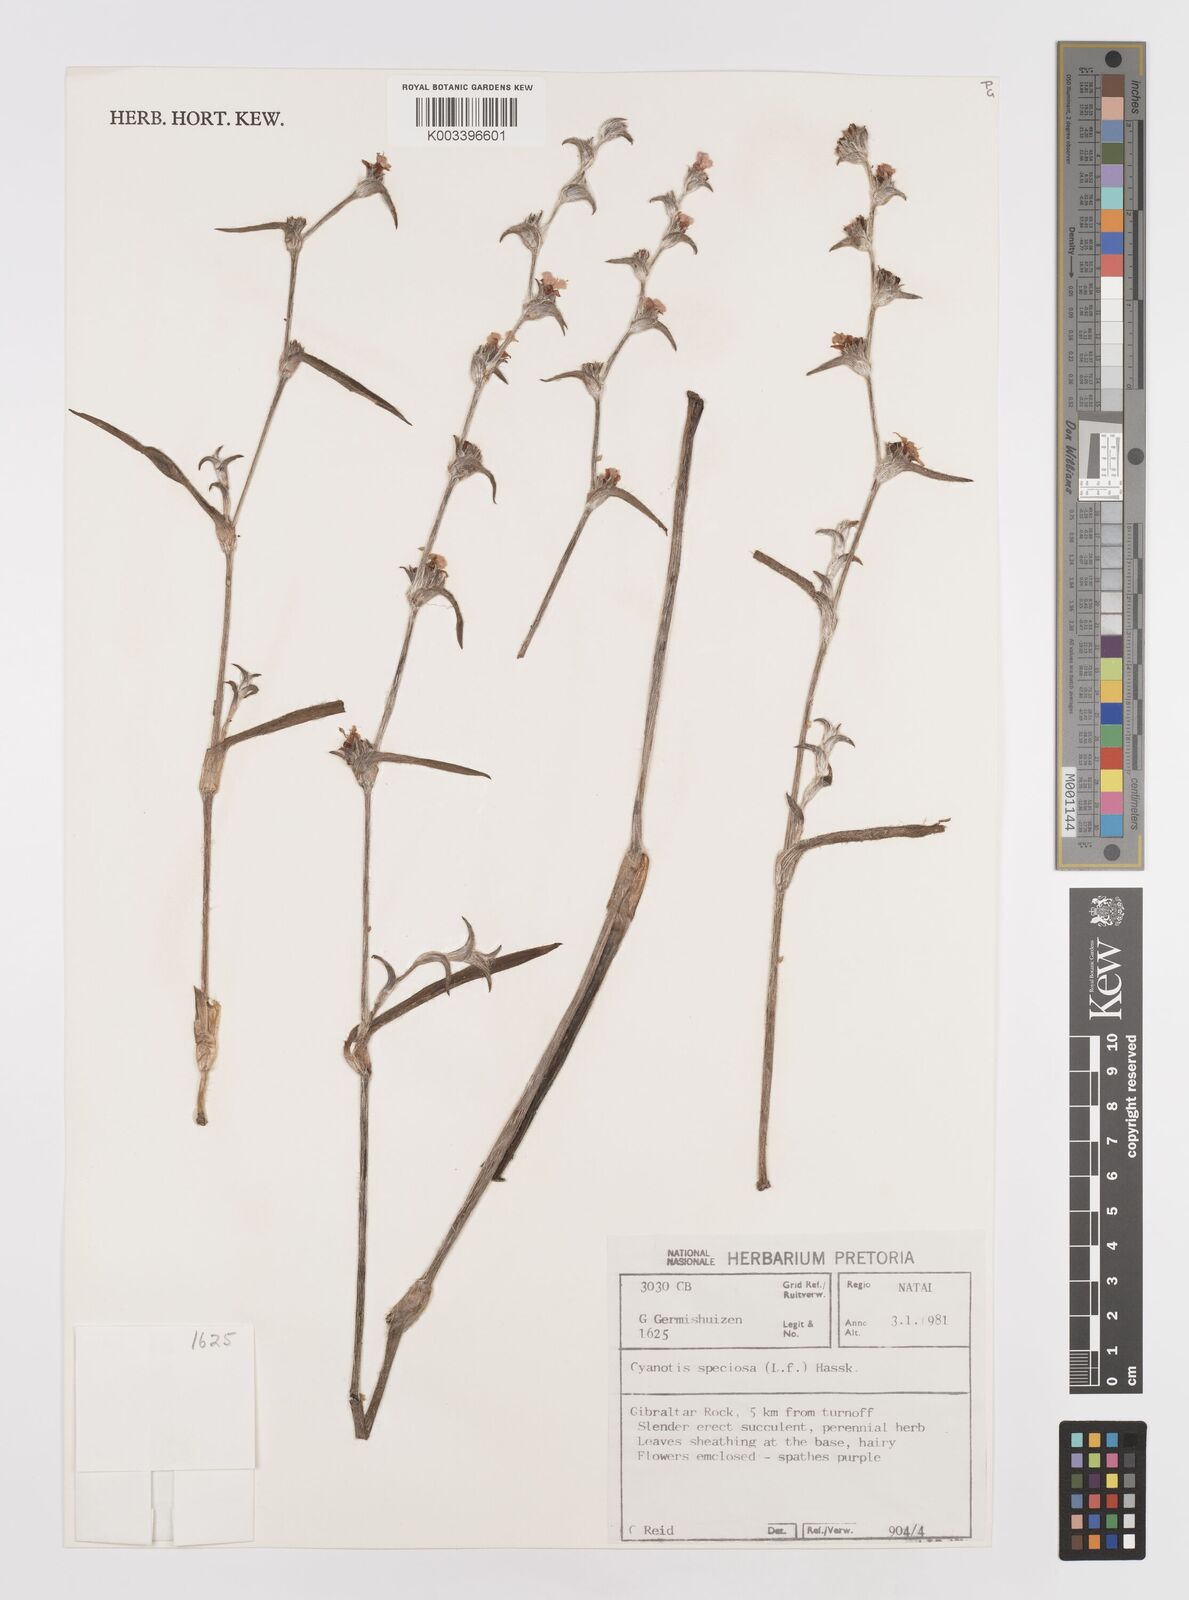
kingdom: Plantae
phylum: Tracheophyta
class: Liliopsida
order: Commelinales
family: Commelinaceae
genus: Cyanotis
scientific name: Cyanotis speciosa
